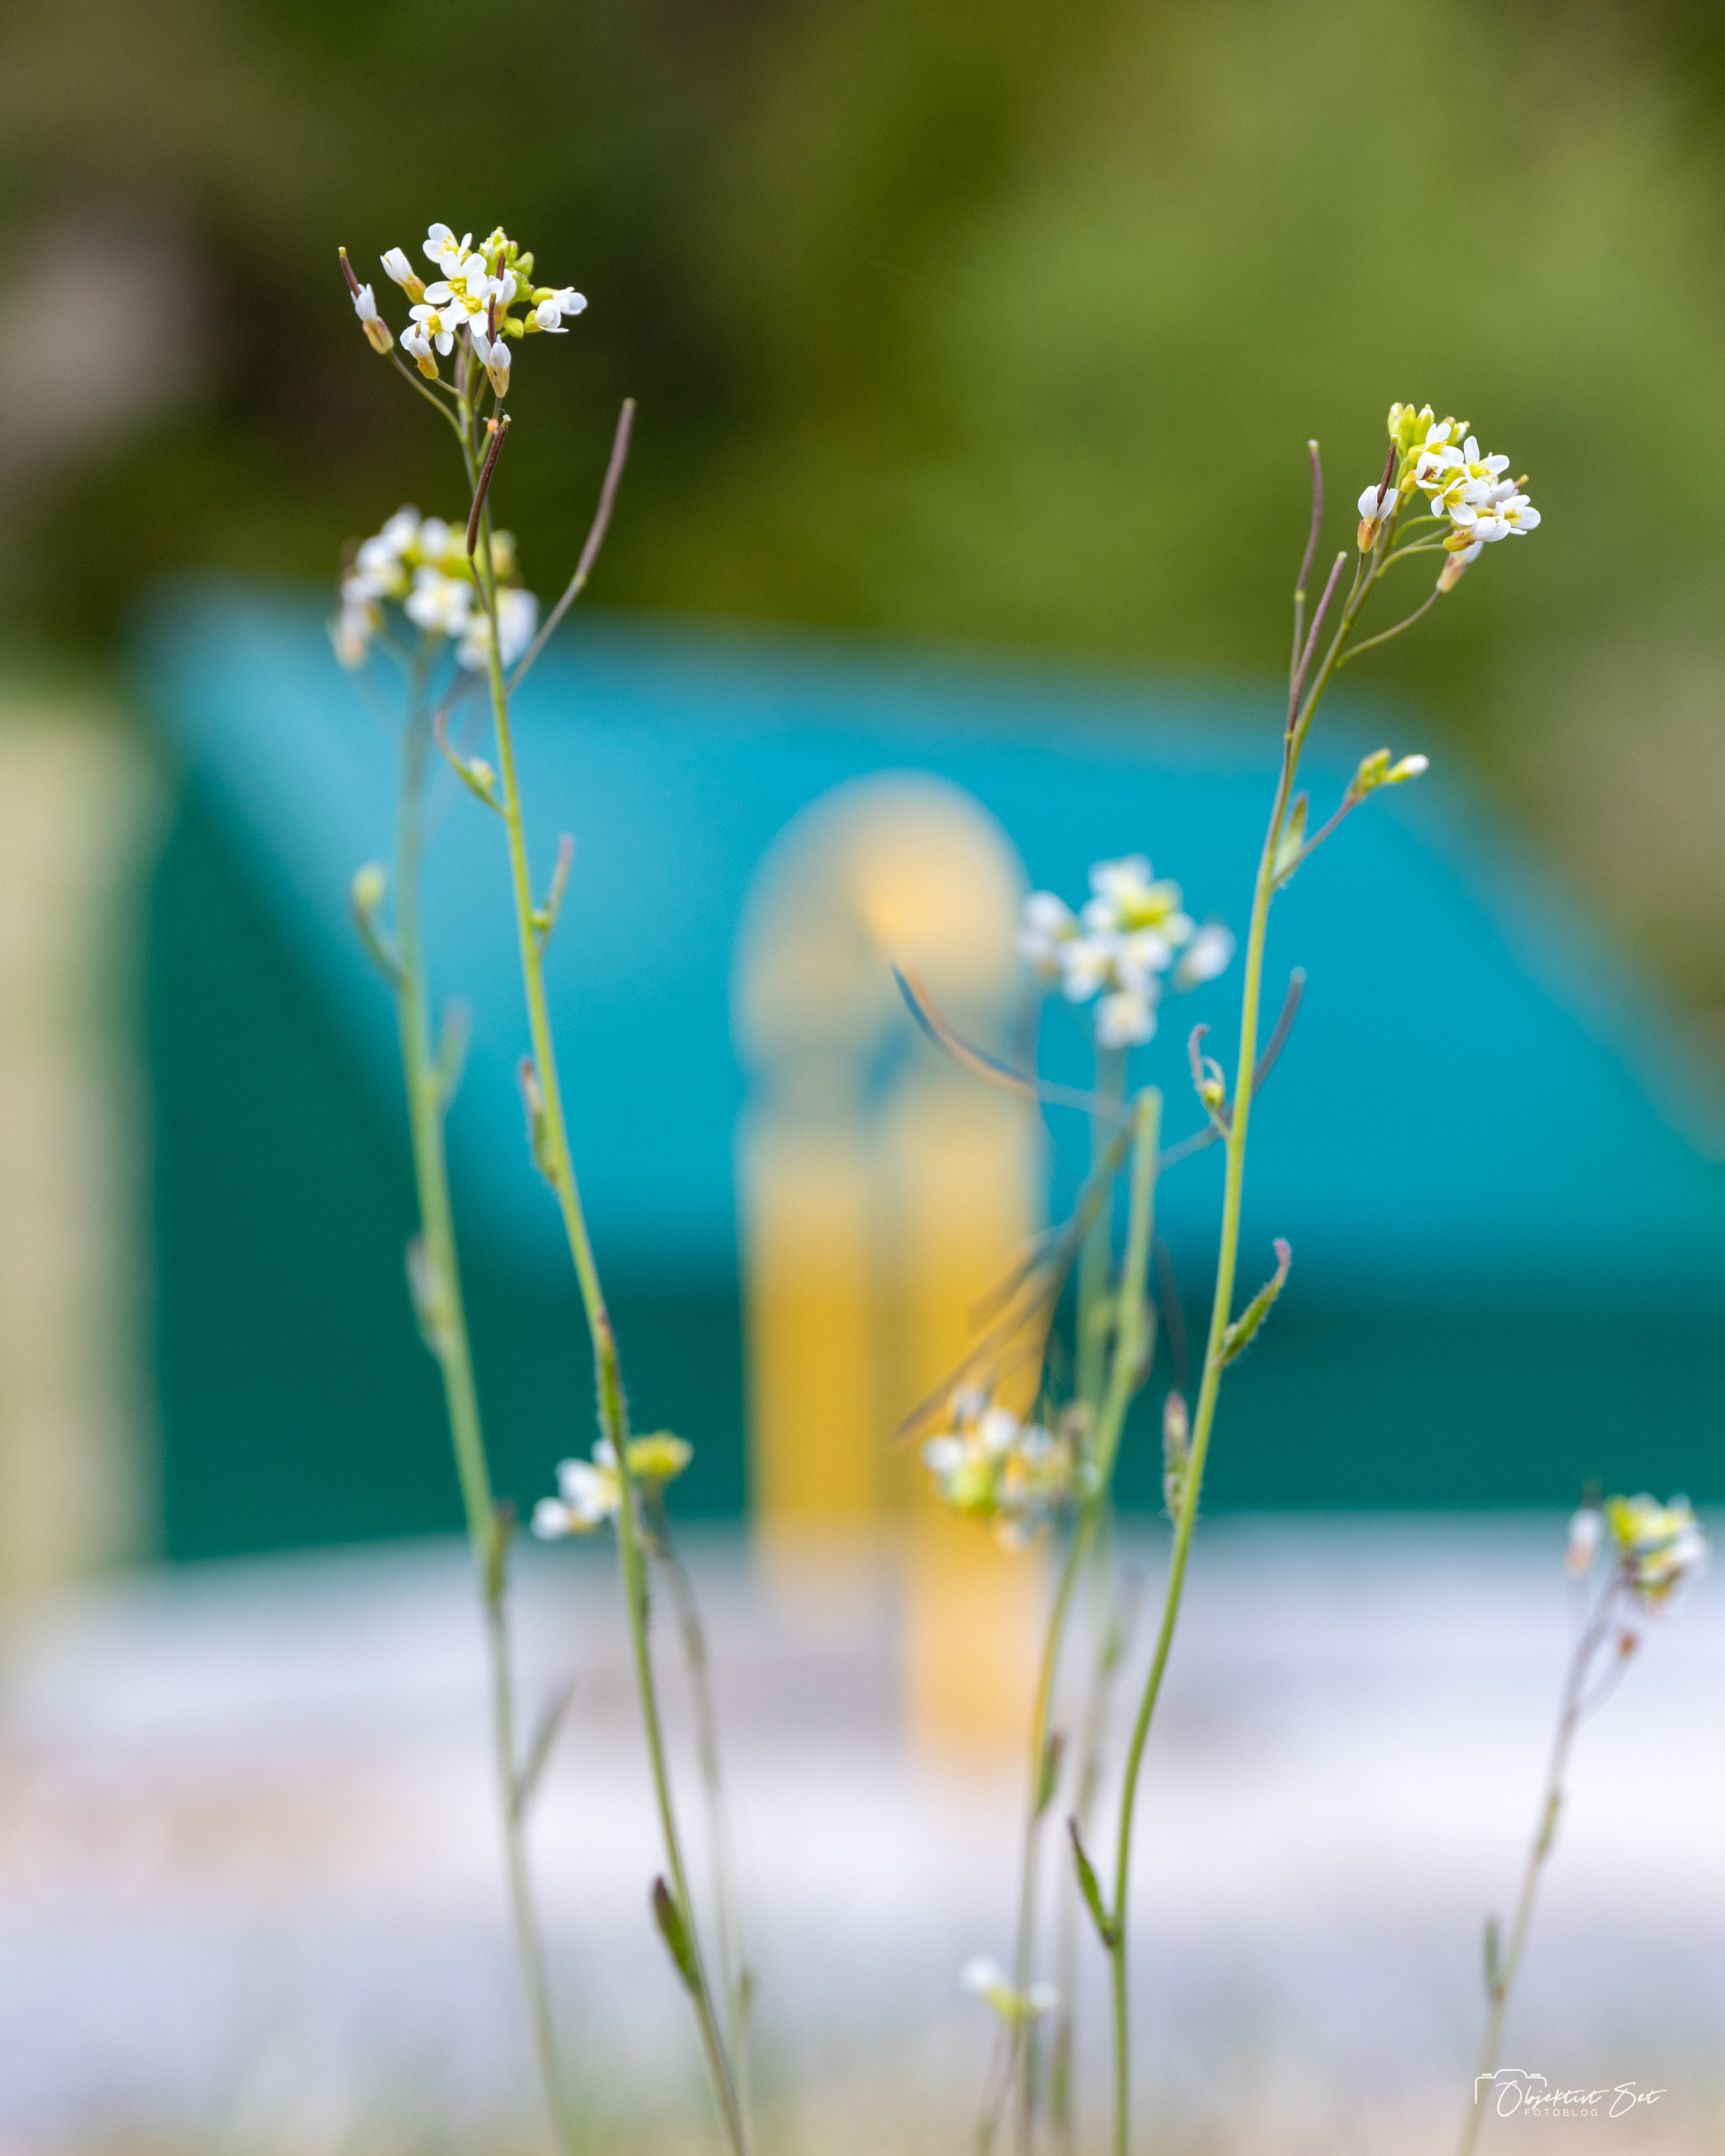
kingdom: Plantae
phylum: Tracheophyta
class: Magnoliopsida
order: Brassicales
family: Brassicaceae
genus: Arabidopsis
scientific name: Arabidopsis thaliana
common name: Almindelig gåsemad
